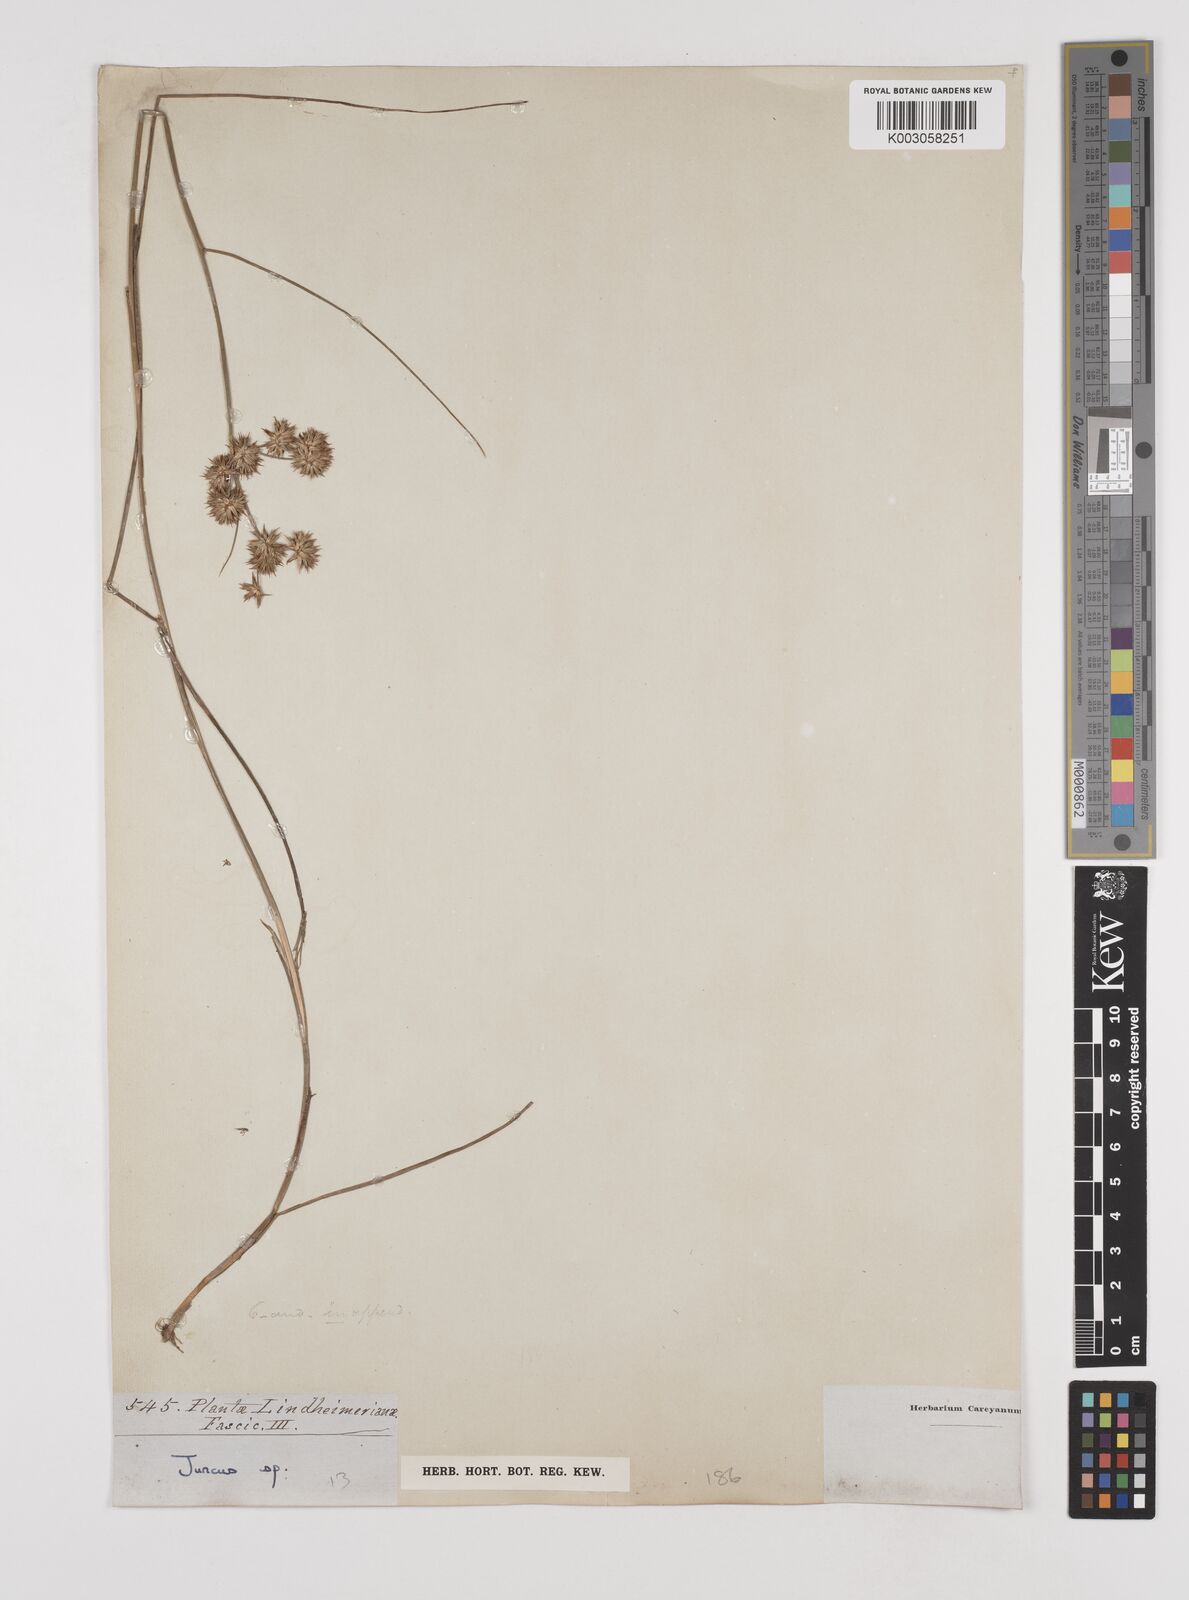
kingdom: Plantae
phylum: Tracheophyta
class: Liliopsida
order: Poales
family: Juncaceae
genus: Juncus
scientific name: Juncus
